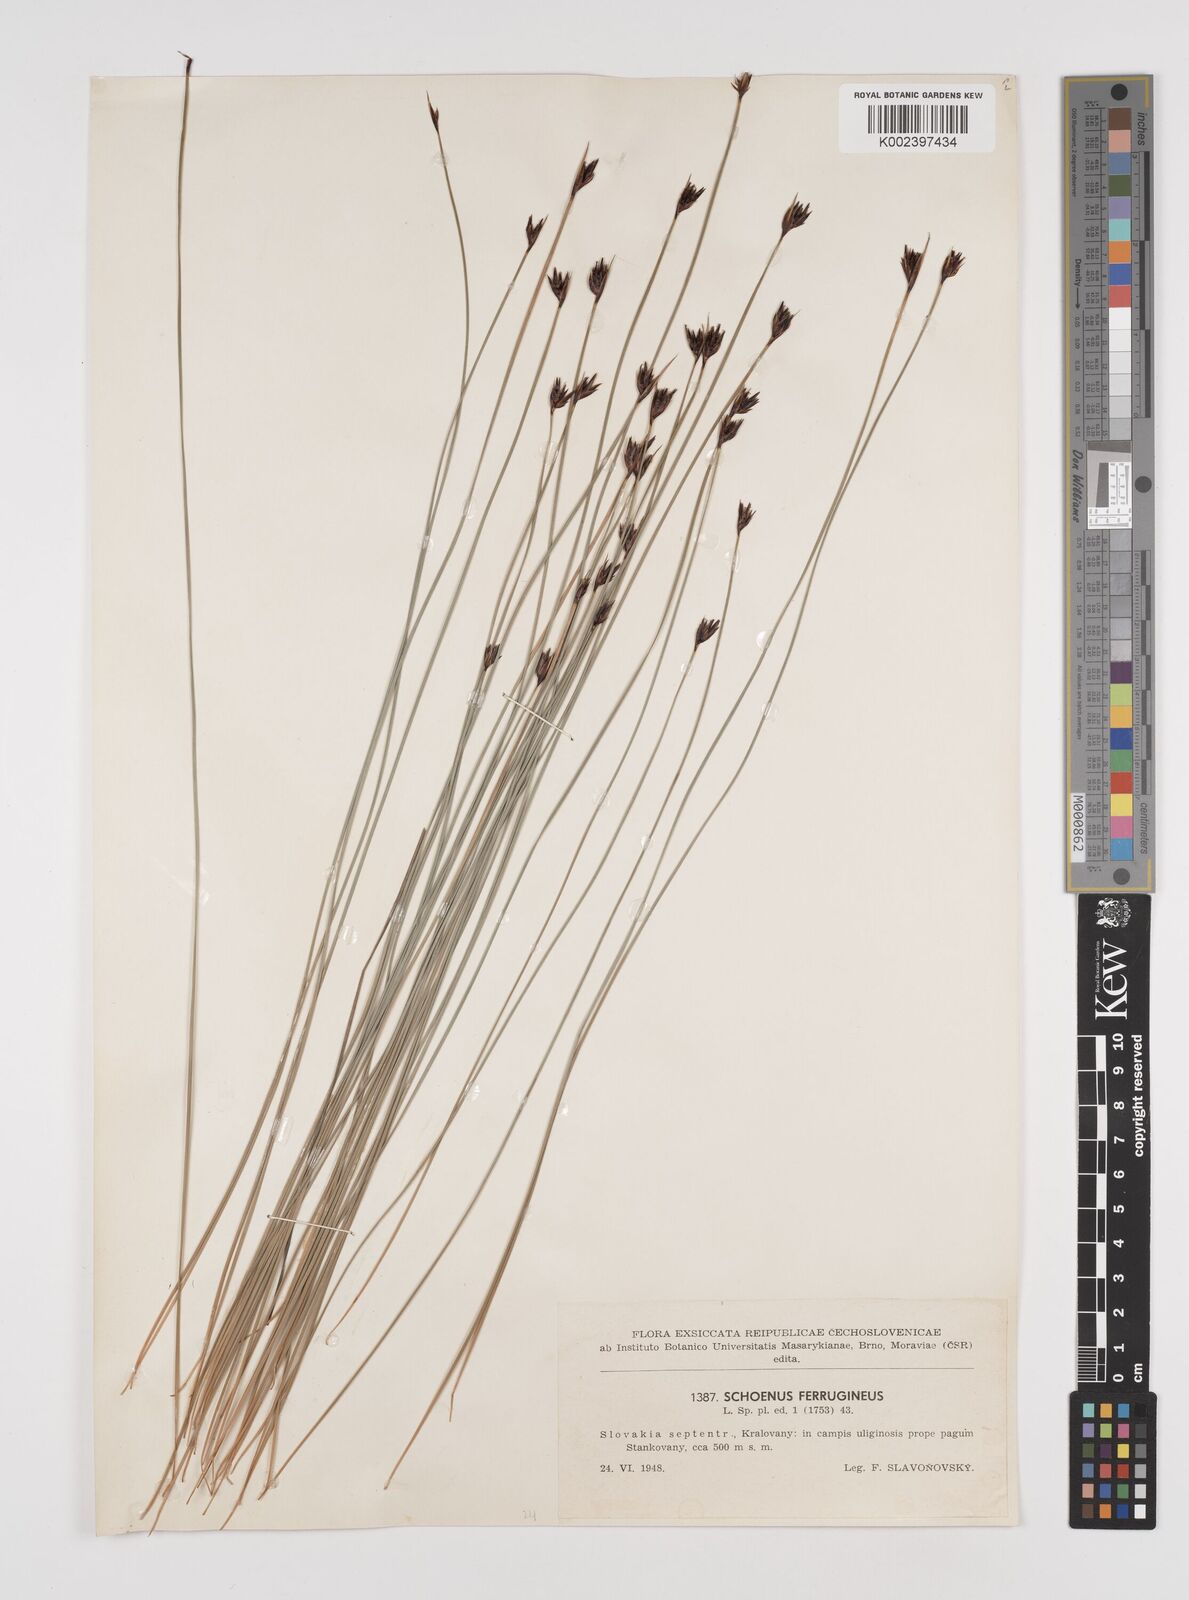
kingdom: Plantae
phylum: Tracheophyta
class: Liliopsida
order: Poales
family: Cyperaceae
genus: Schoenus
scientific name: Schoenus ferrugineus
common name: Brown bog-rush
